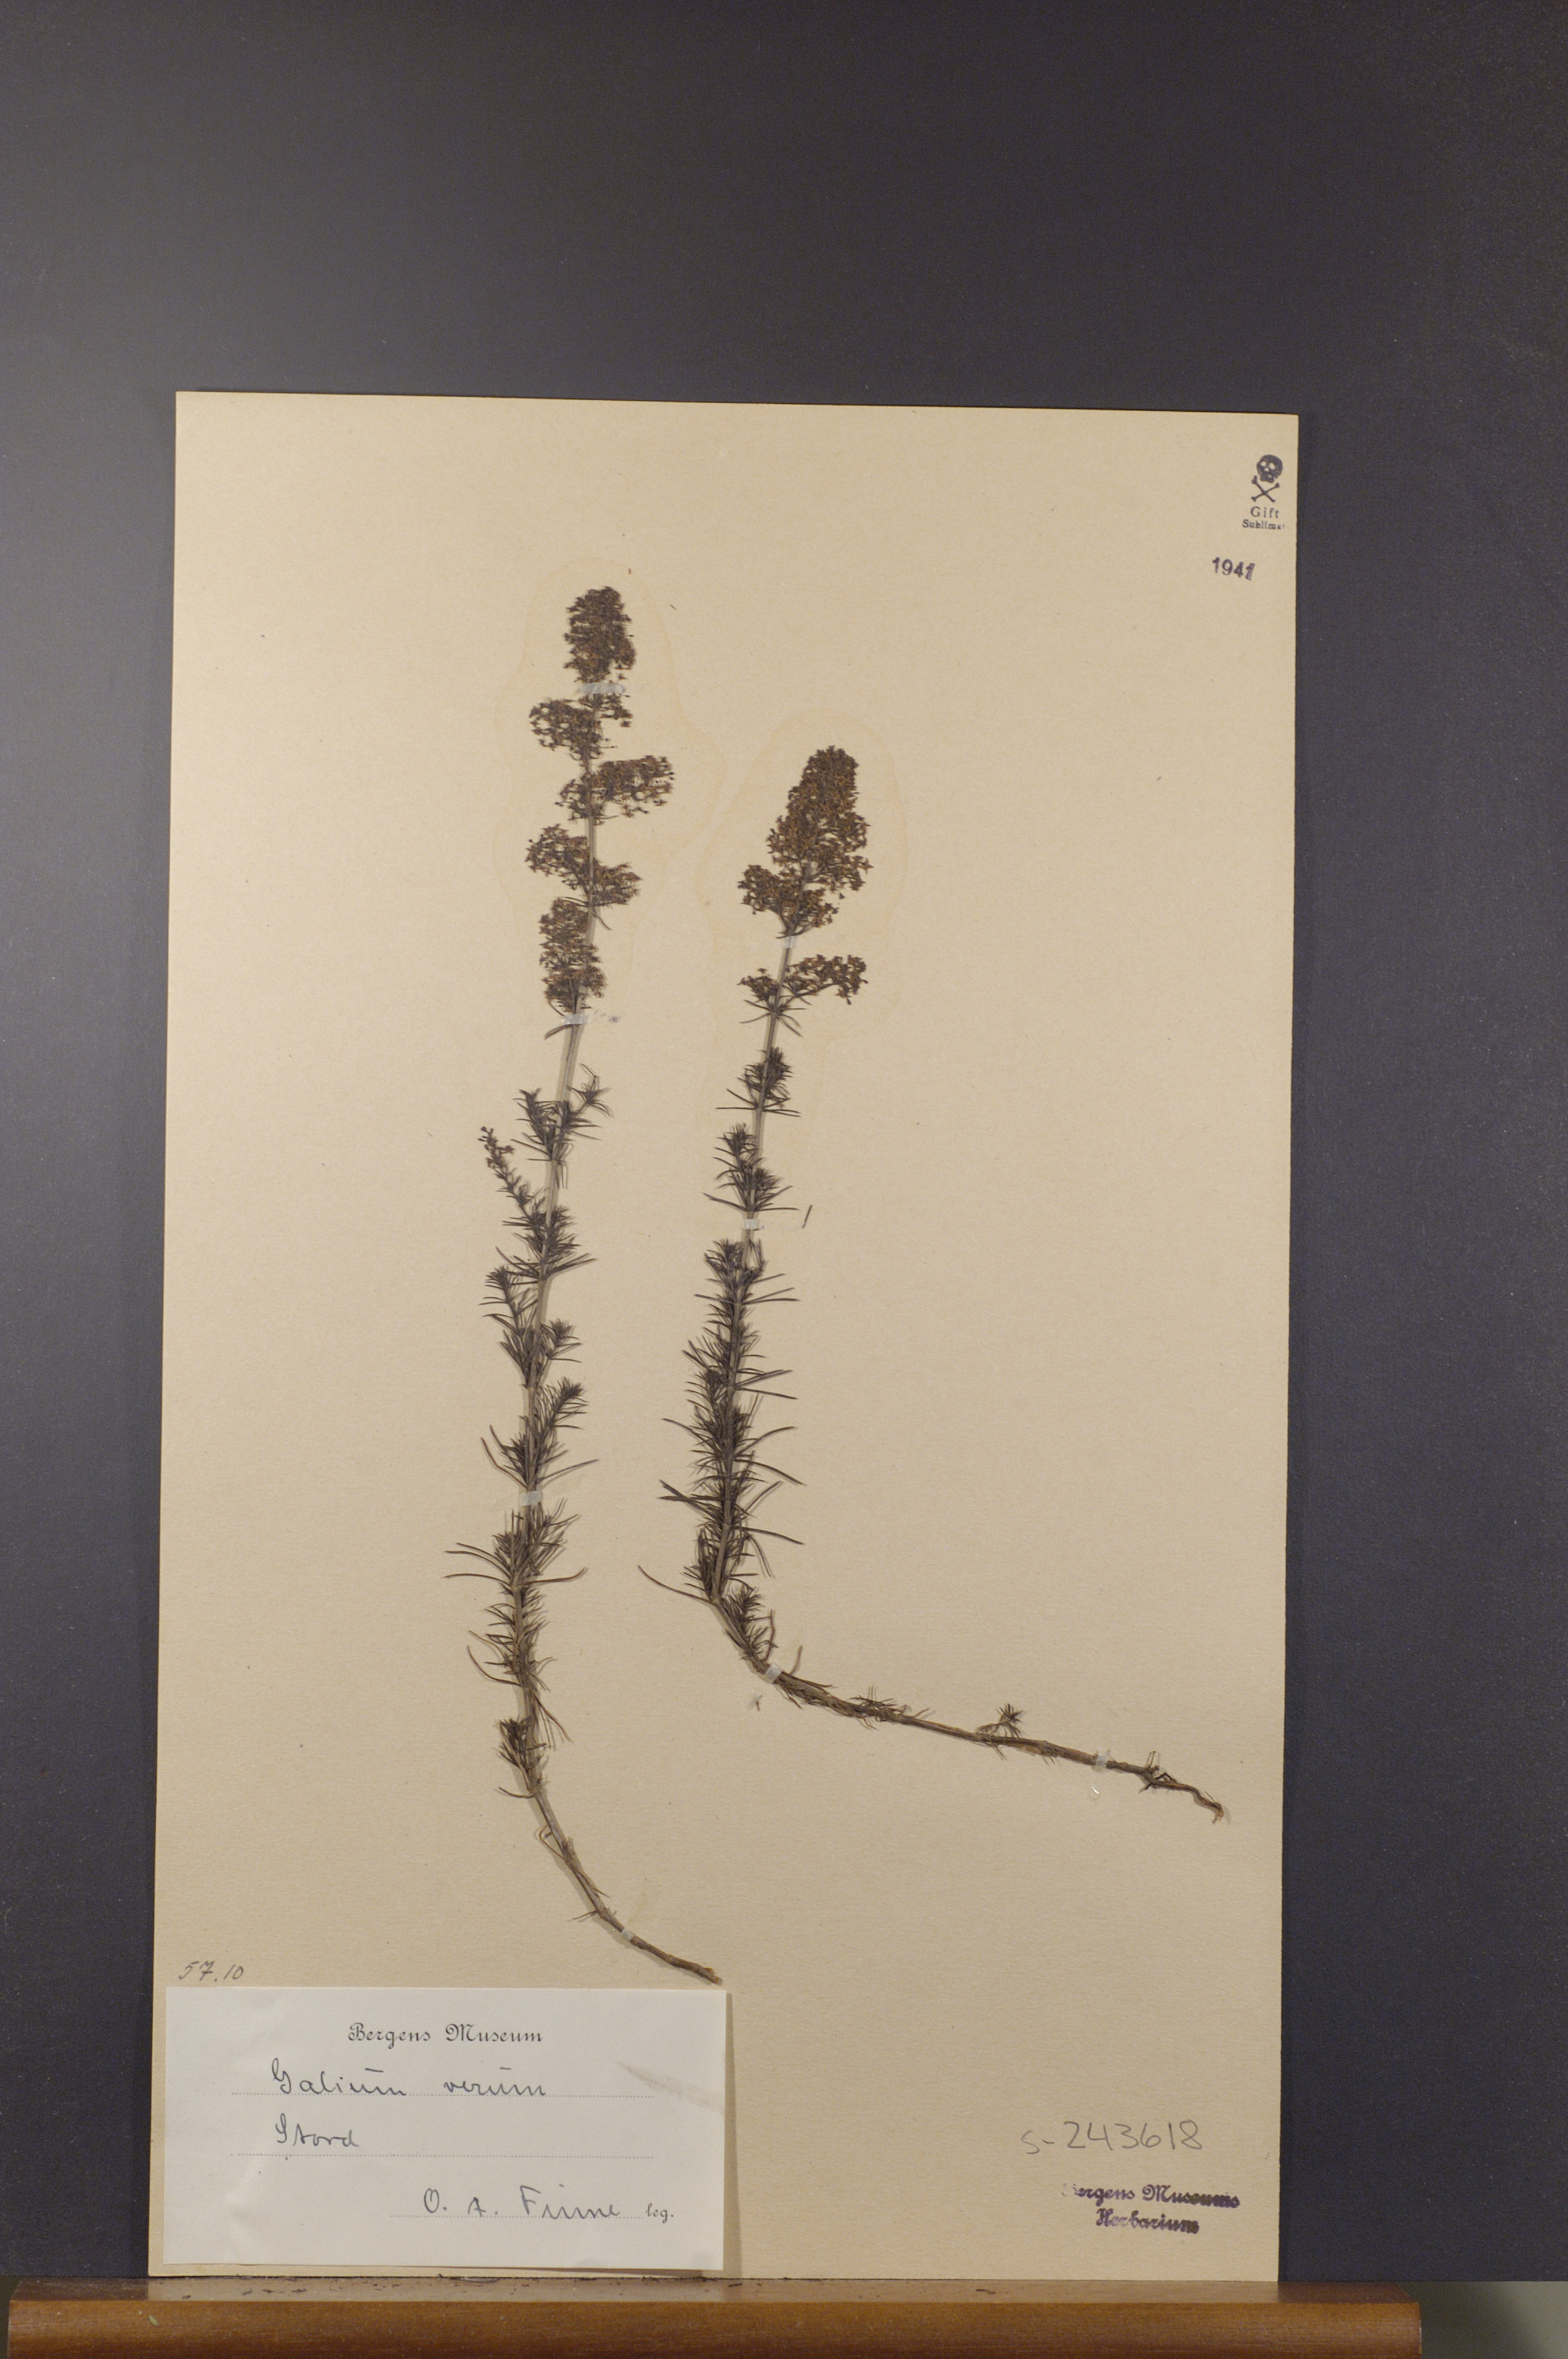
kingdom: Plantae
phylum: Tracheophyta
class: Magnoliopsida
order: Gentianales
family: Rubiaceae
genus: Galium
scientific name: Galium verum
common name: Lady's bedstraw
